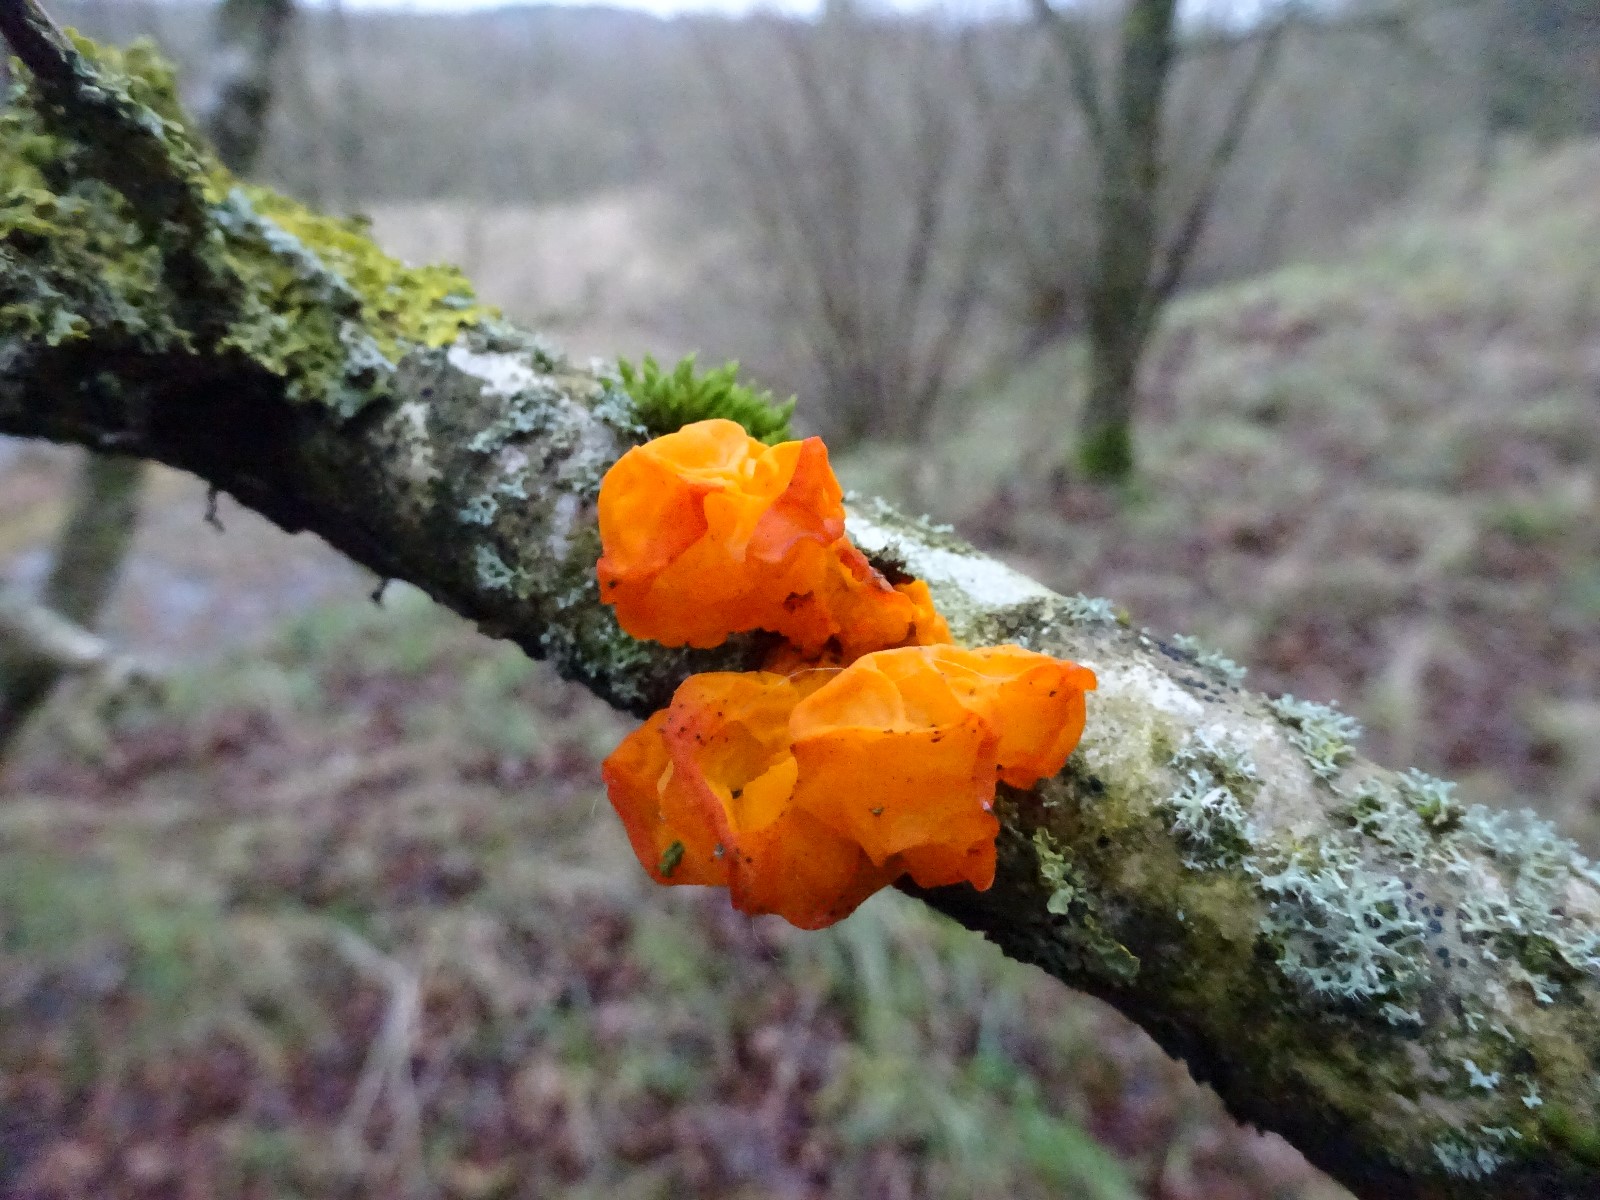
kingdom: Fungi
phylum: Basidiomycota
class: Tremellomycetes
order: Tremellales
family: Tremellaceae
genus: Tremella
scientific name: Tremella mesenterica
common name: gul bævresvamp
